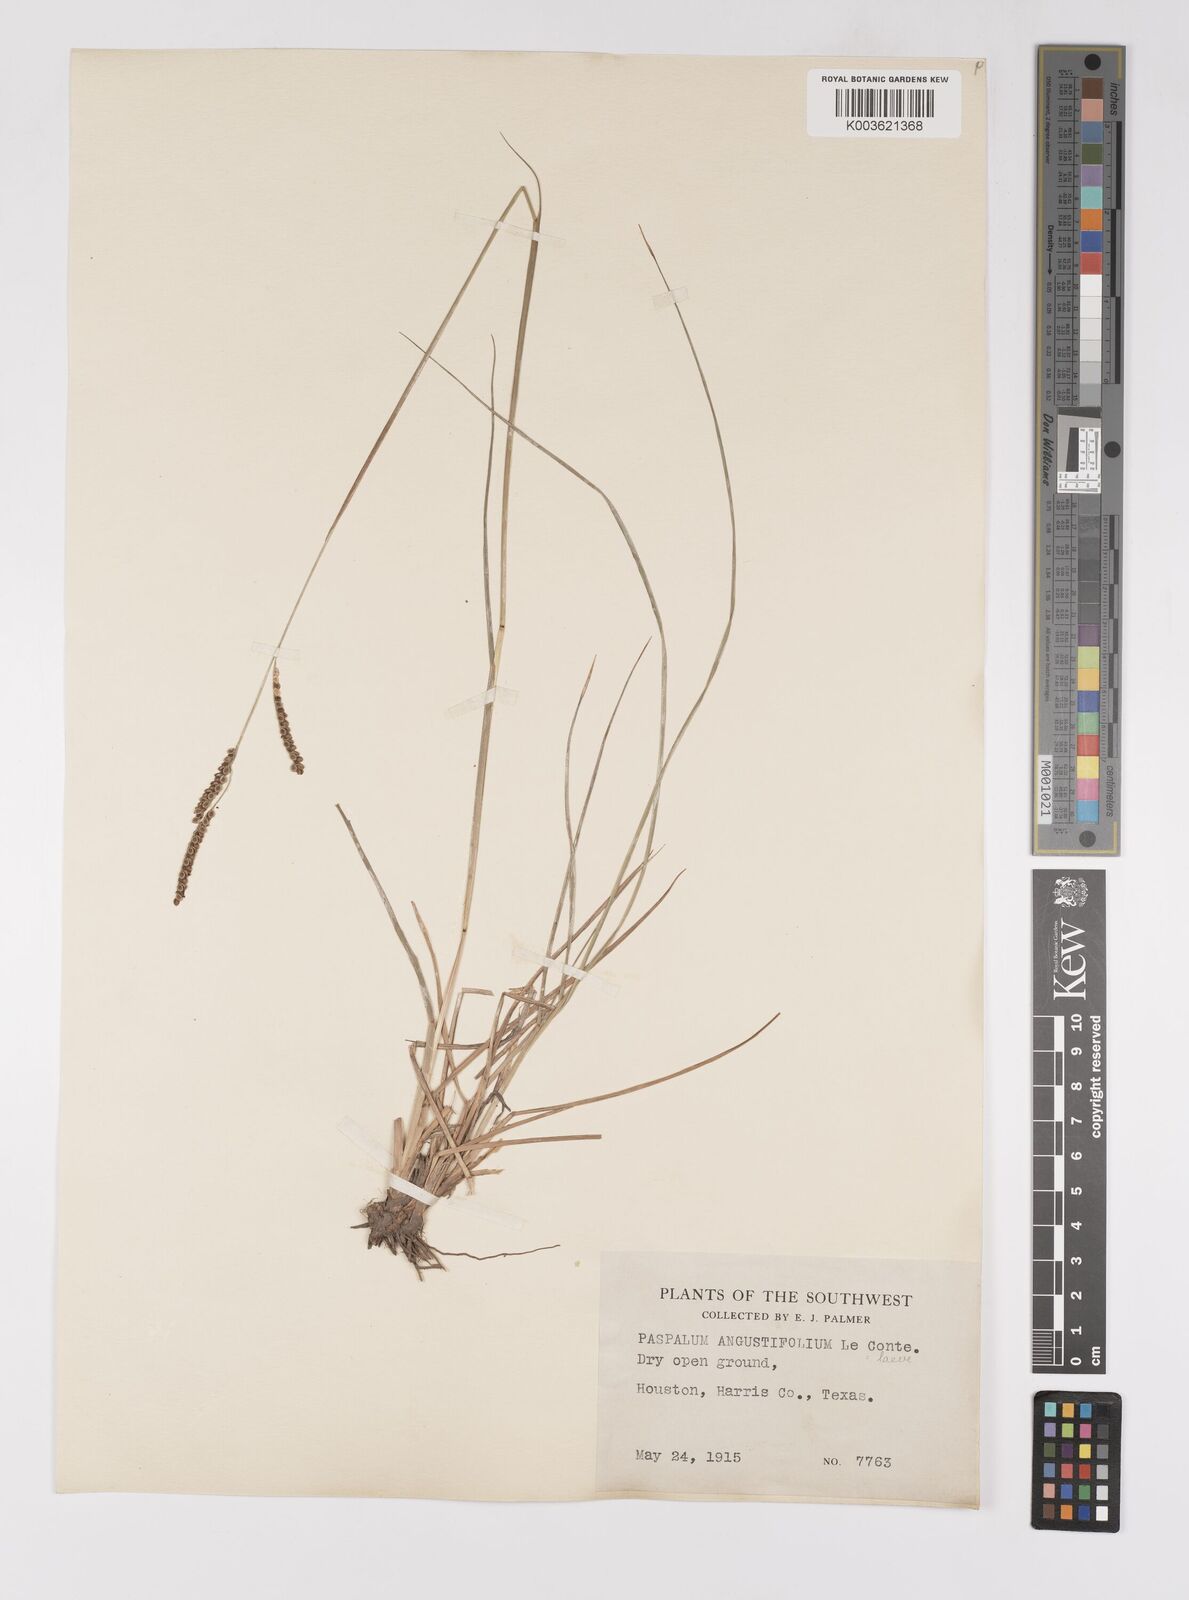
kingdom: Plantae
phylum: Tracheophyta
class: Liliopsida
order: Poales
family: Poaceae
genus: Paspalum
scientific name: Paspalum plicatulum
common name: Top paspalum
